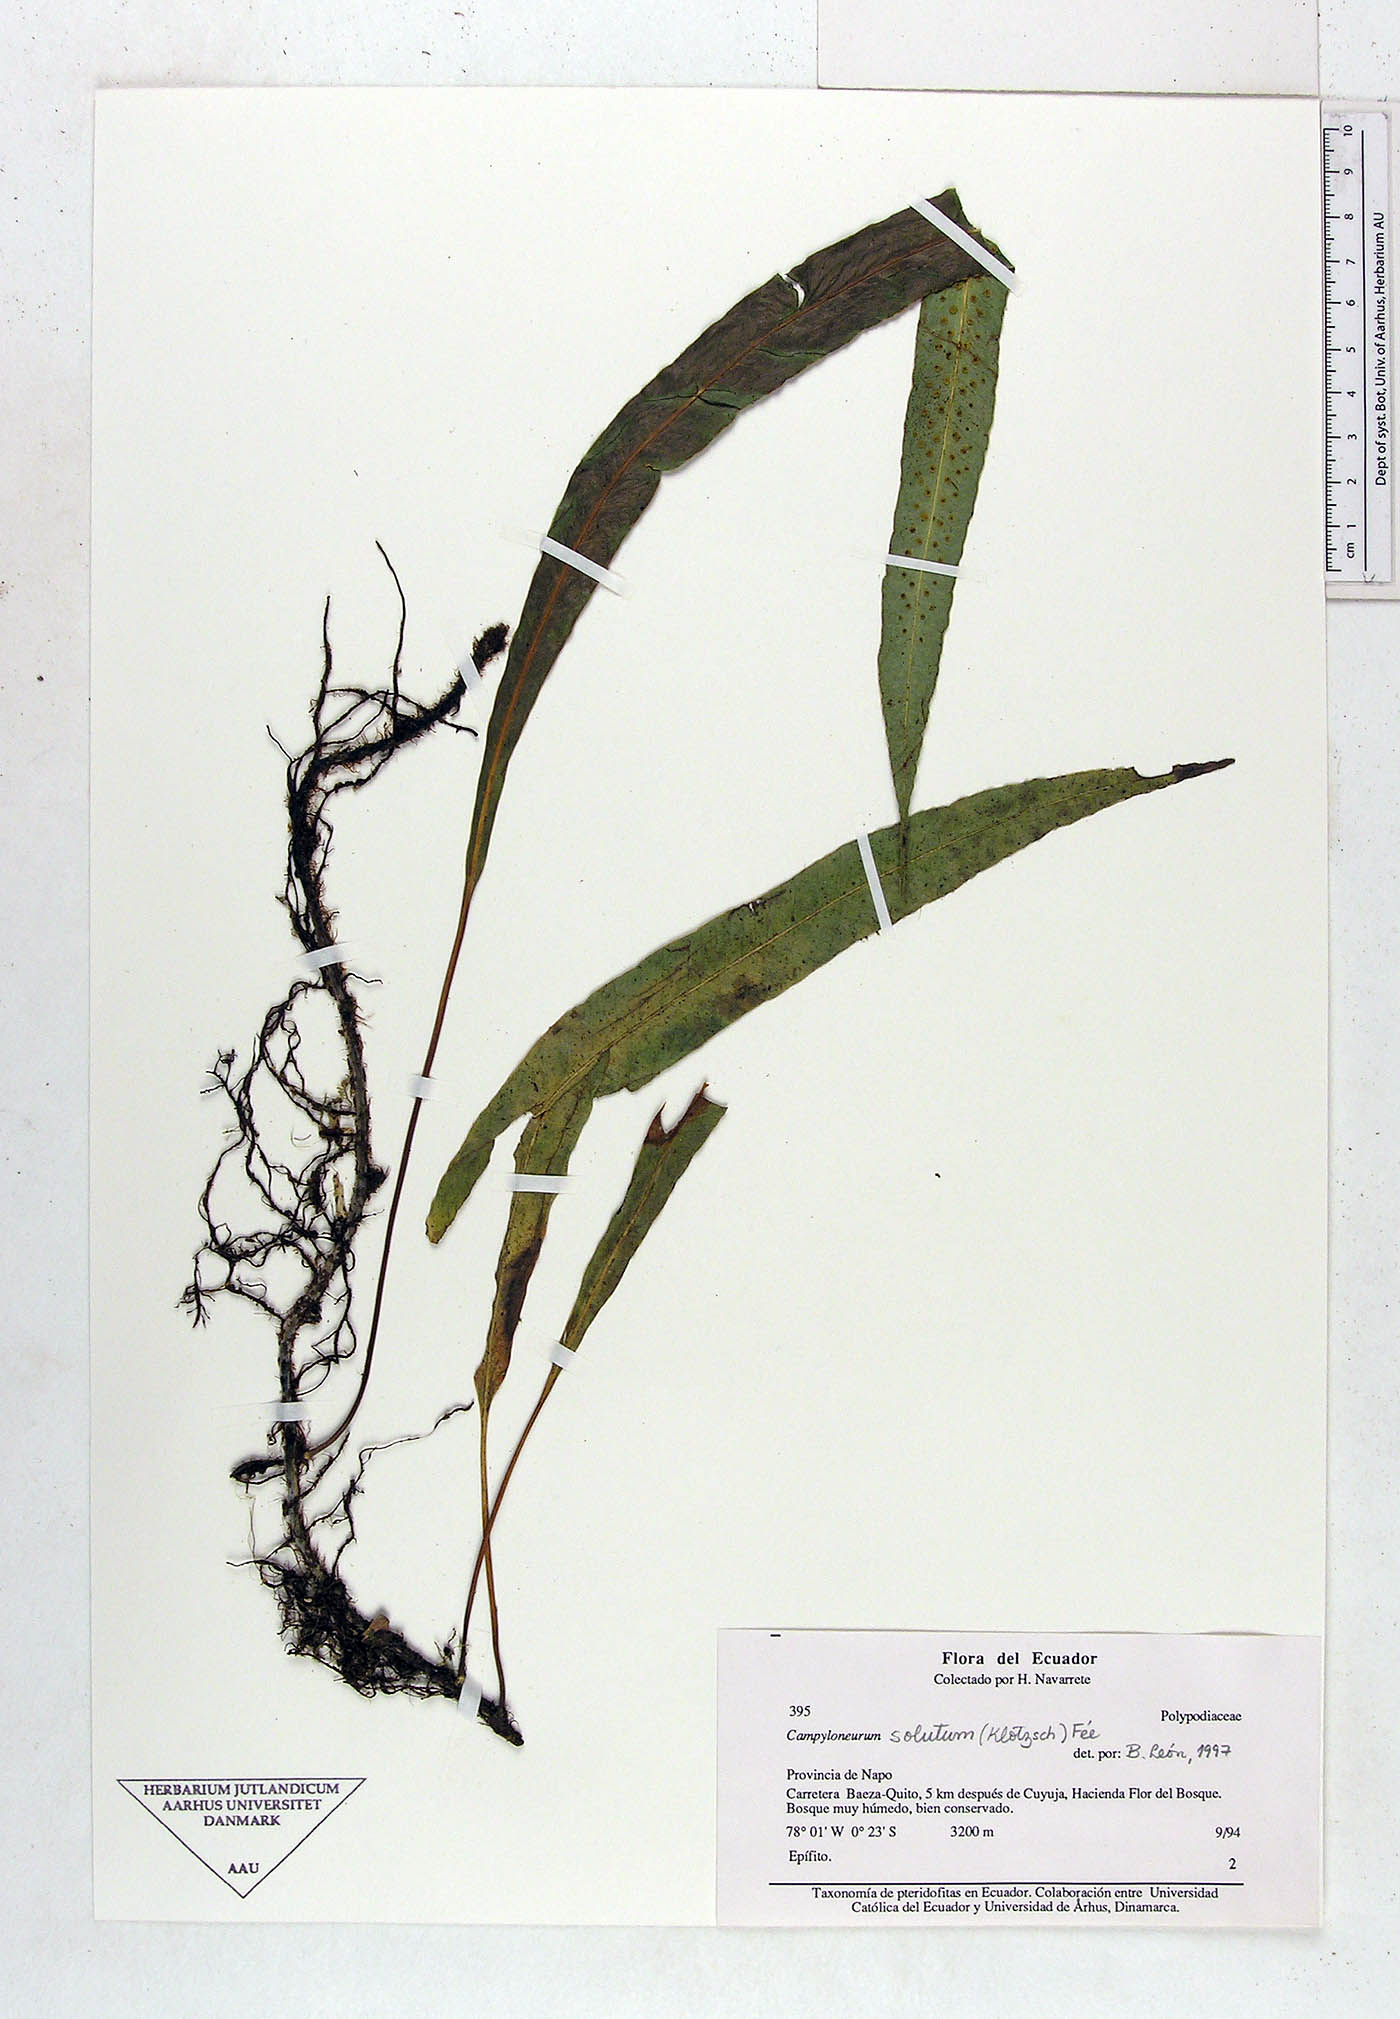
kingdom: Plantae
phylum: Tracheophyta
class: Polypodiopsida
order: Polypodiales
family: Polypodiaceae
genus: Campyloneurum
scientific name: Campyloneurum solutum
